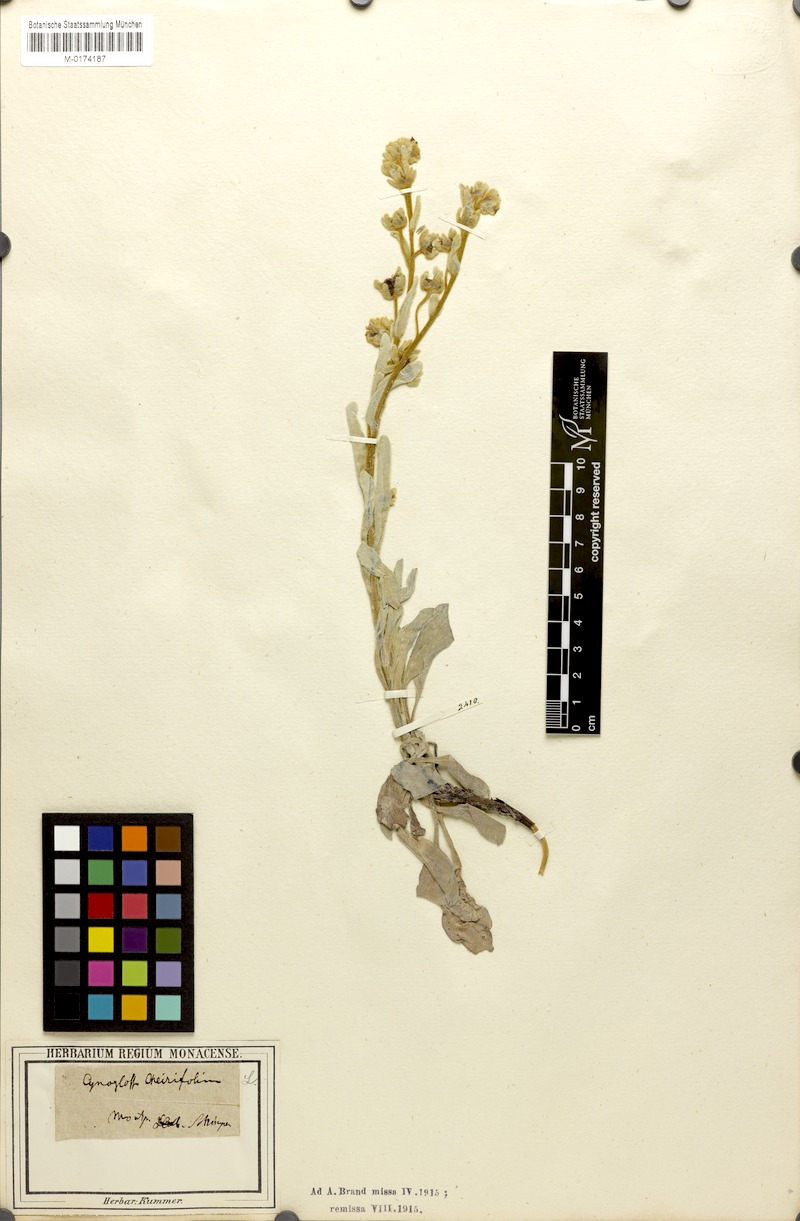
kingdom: Plantae
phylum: Tracheophyta
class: Magnoliopsida
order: Boraginales
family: Boraginaceae
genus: Pardoglossum
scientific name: Pardoglossum cheirifolium
